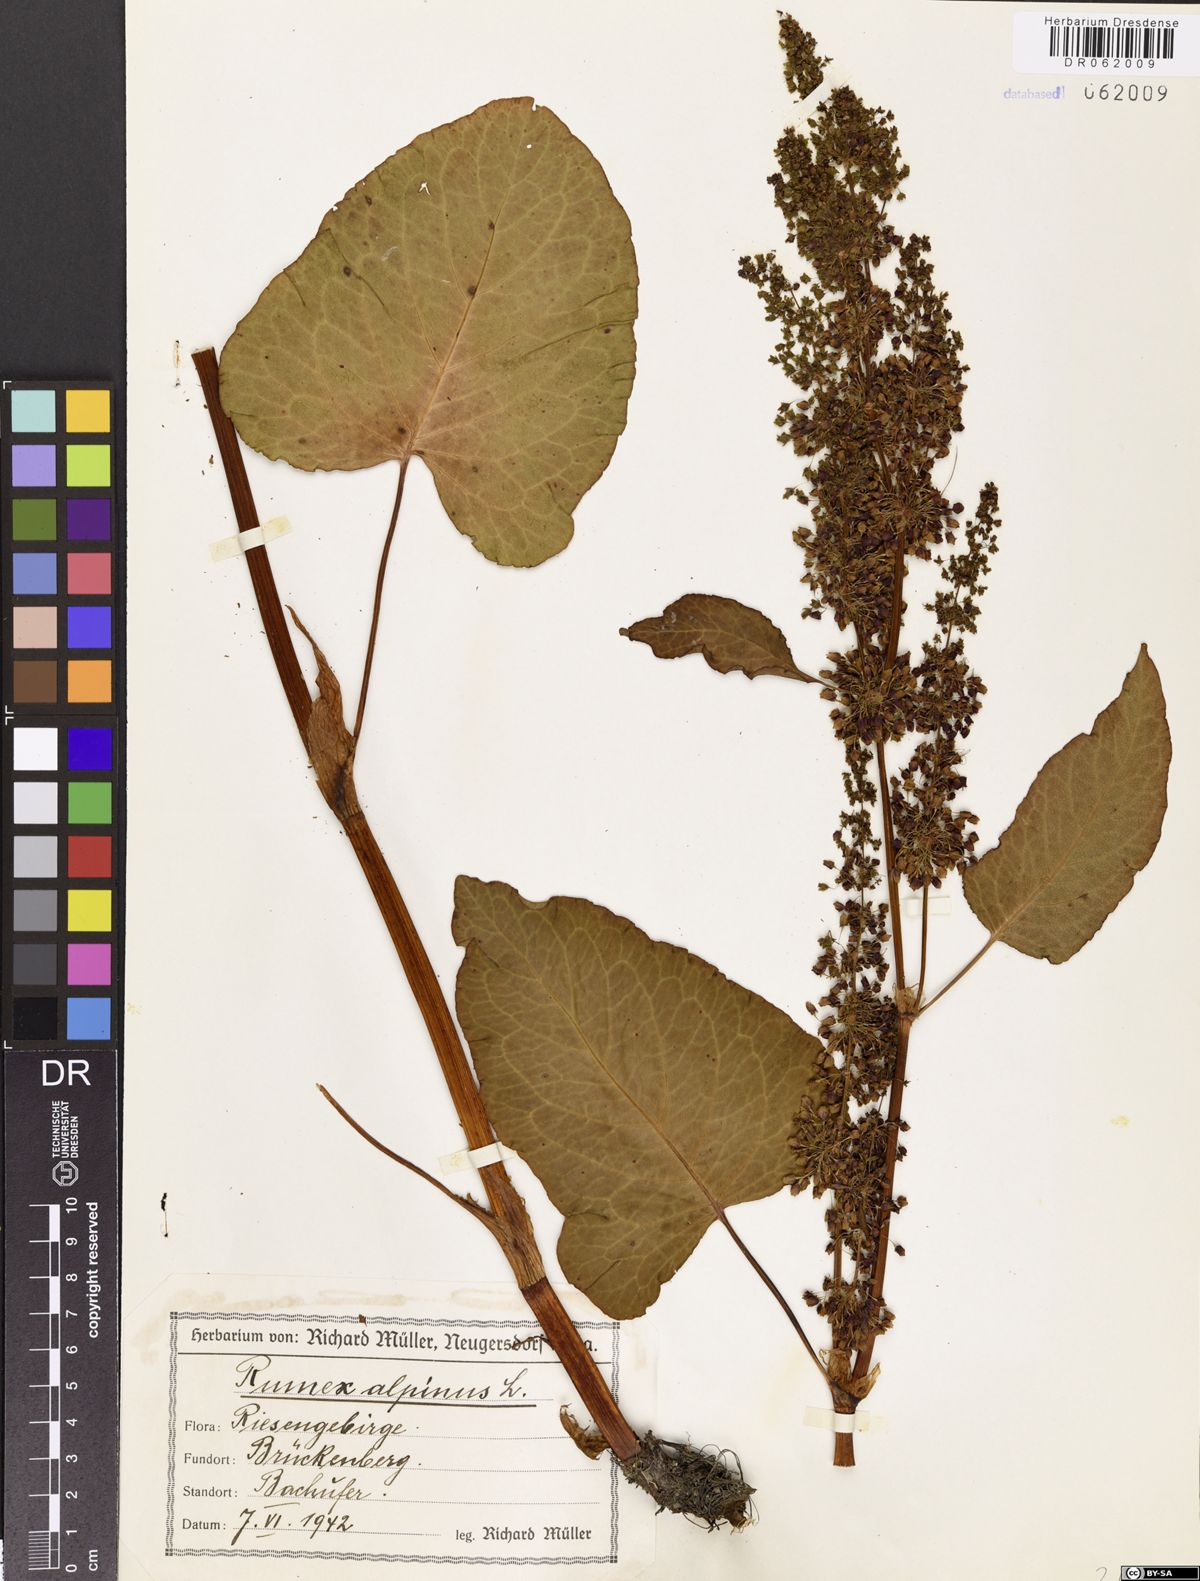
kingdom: Plantae
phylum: Tracheophyta
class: Magnoliopsida
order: Caryophyllales
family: Polygonaceae
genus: Rumex
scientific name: Rumex alpinus
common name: Alpine dock
